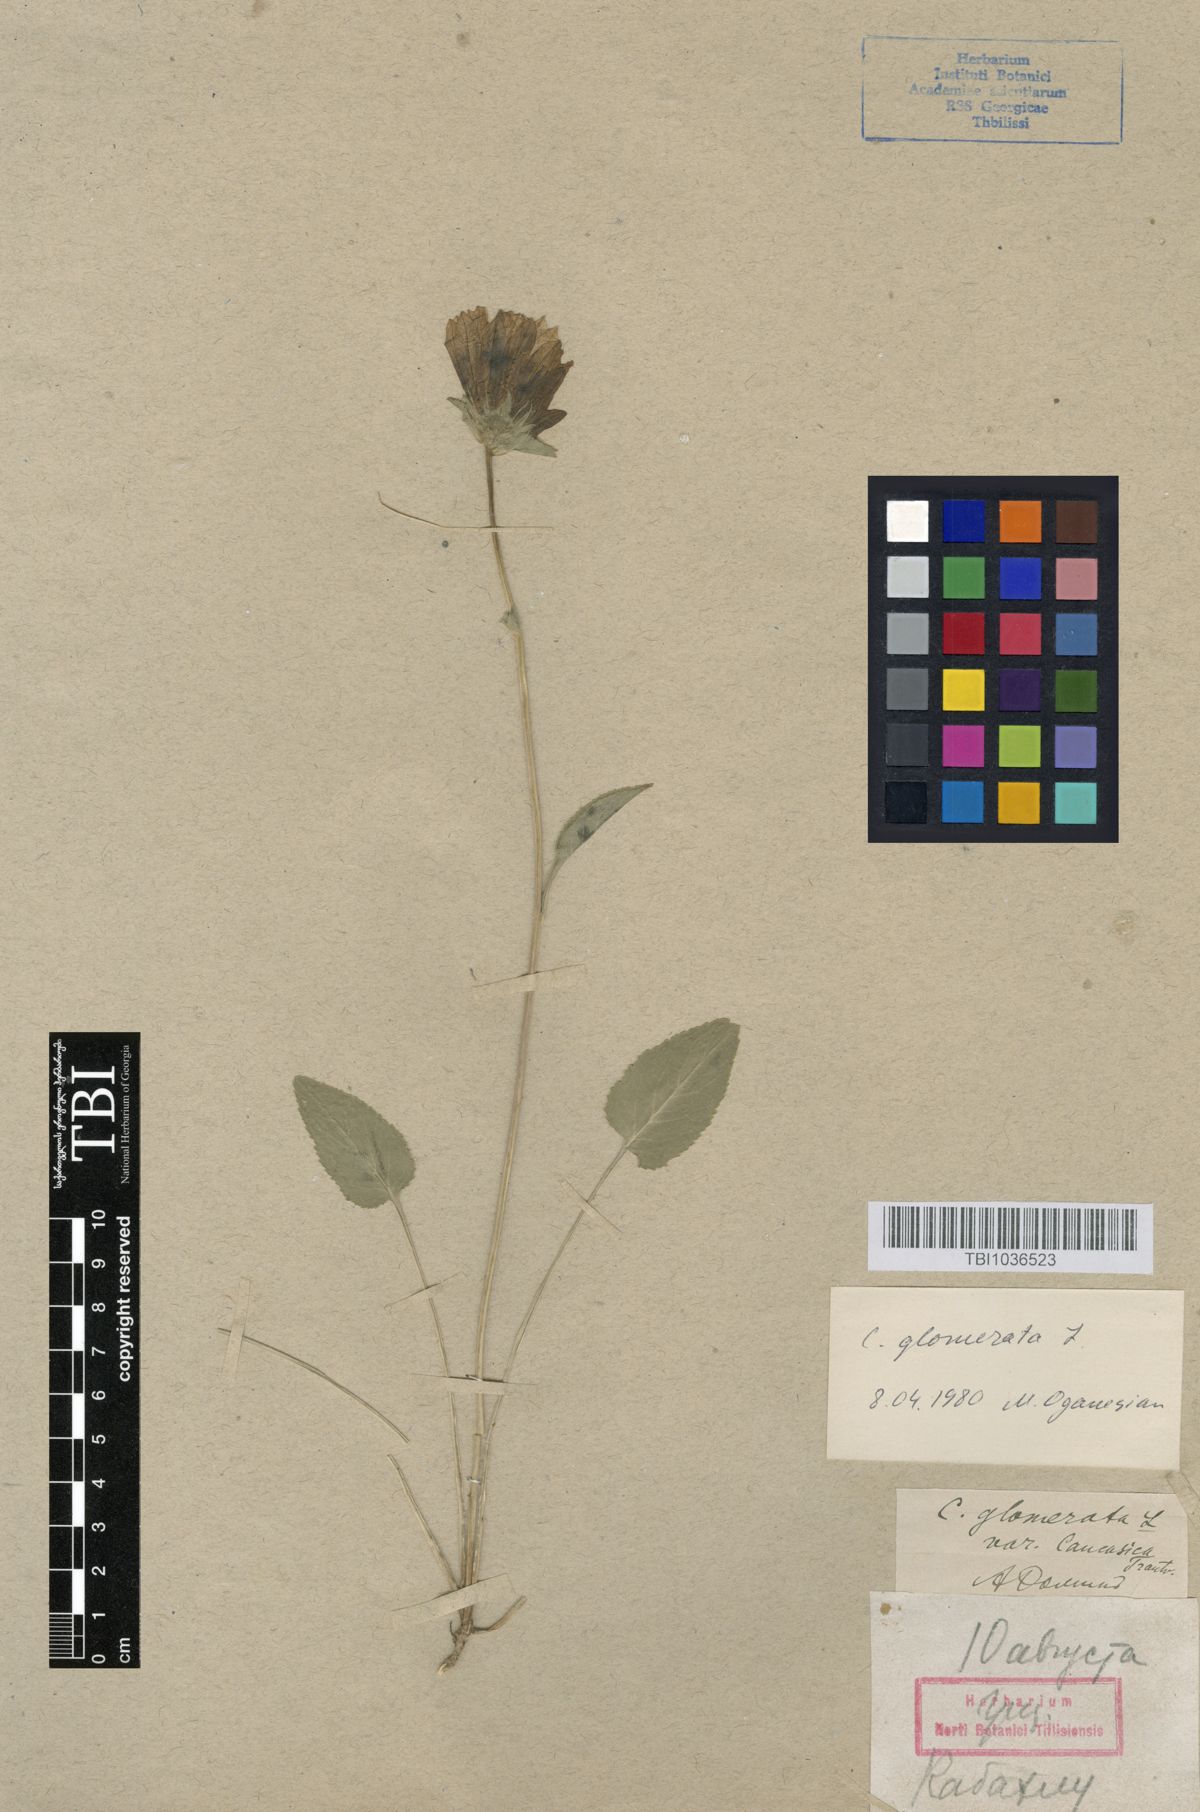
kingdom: Plantae
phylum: Tracheophyta
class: Magnoliopsida
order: Asterales
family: Campanulaceae
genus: Campanula
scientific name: Campanula glomerata
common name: Clustered bellflower
